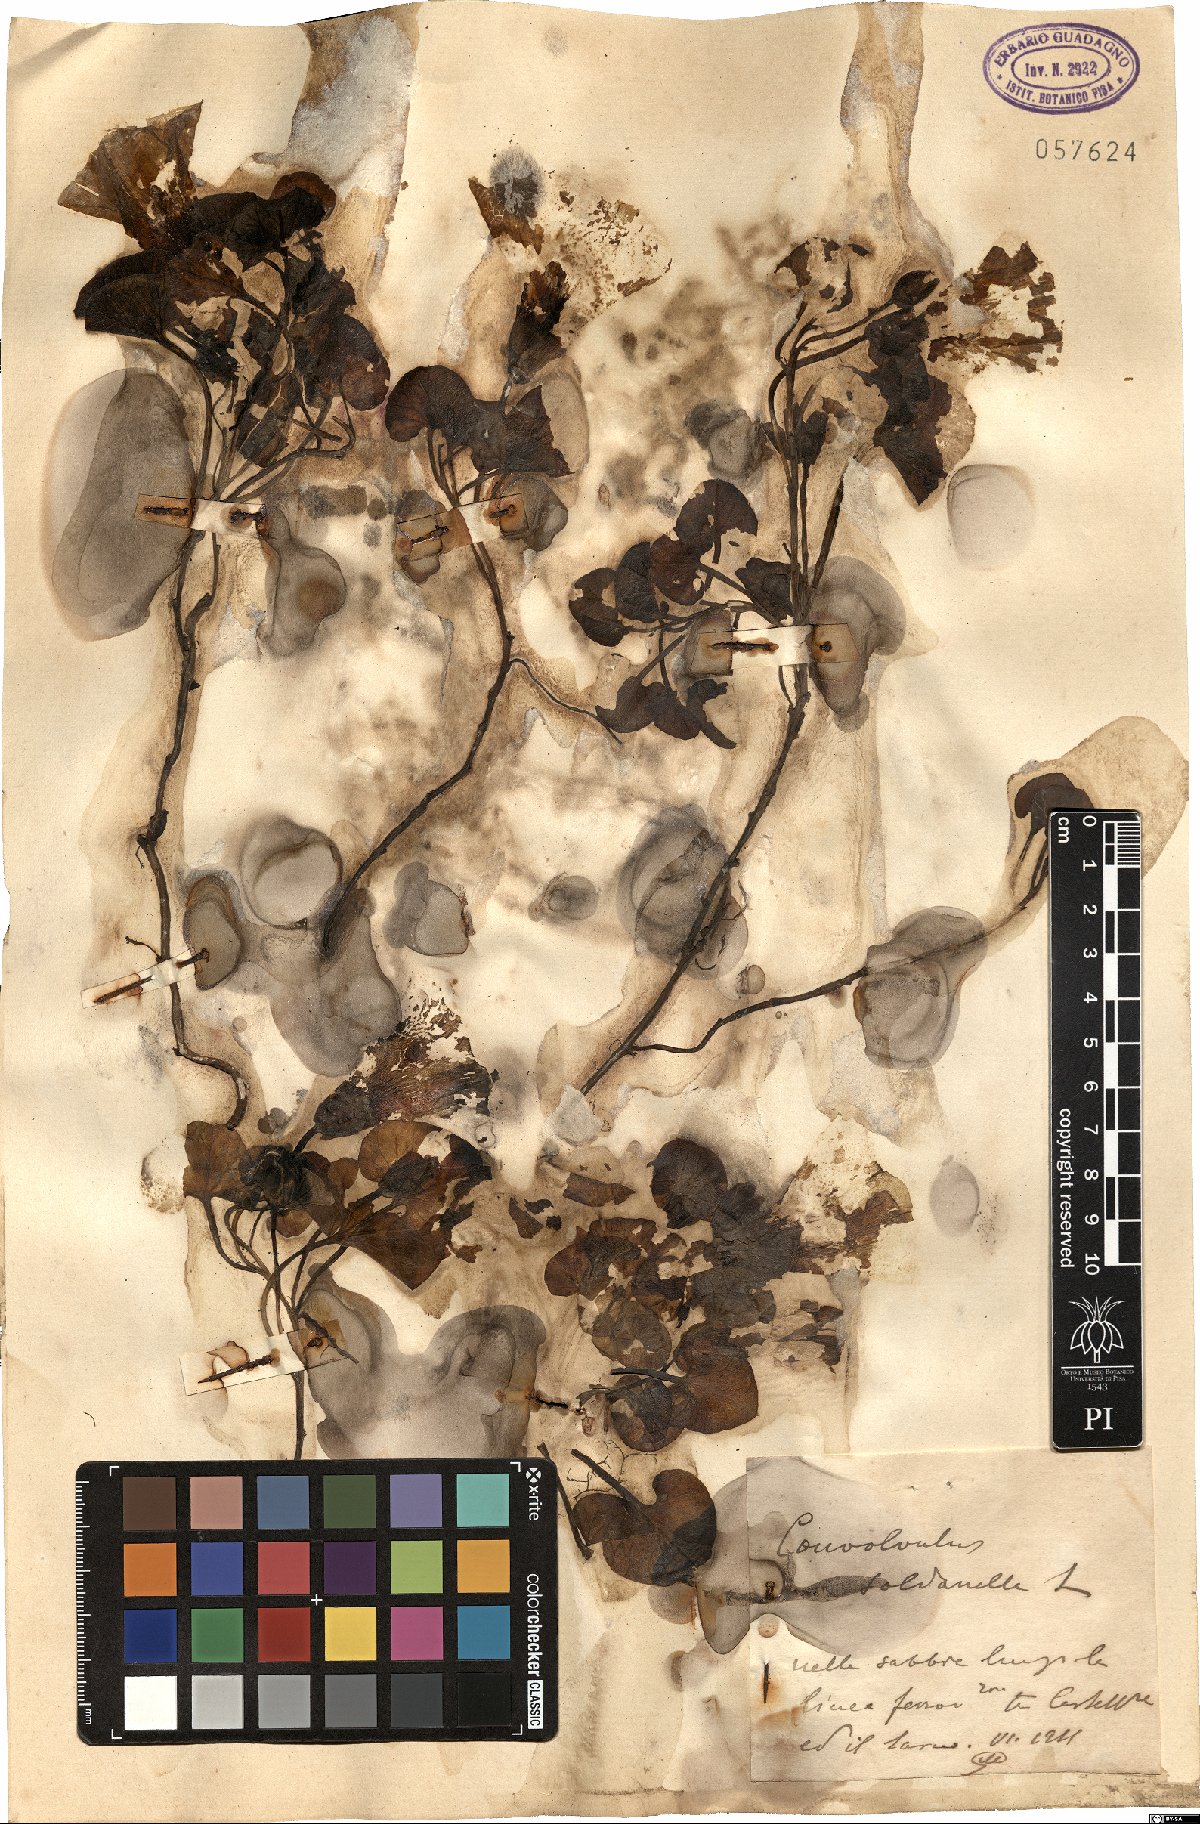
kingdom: Plantae
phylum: Tracheophyta
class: Magnoliopsida
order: Solanales
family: Convolvulaceae
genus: Calystegia
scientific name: Calystegia soldanella
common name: Sea bindweed
